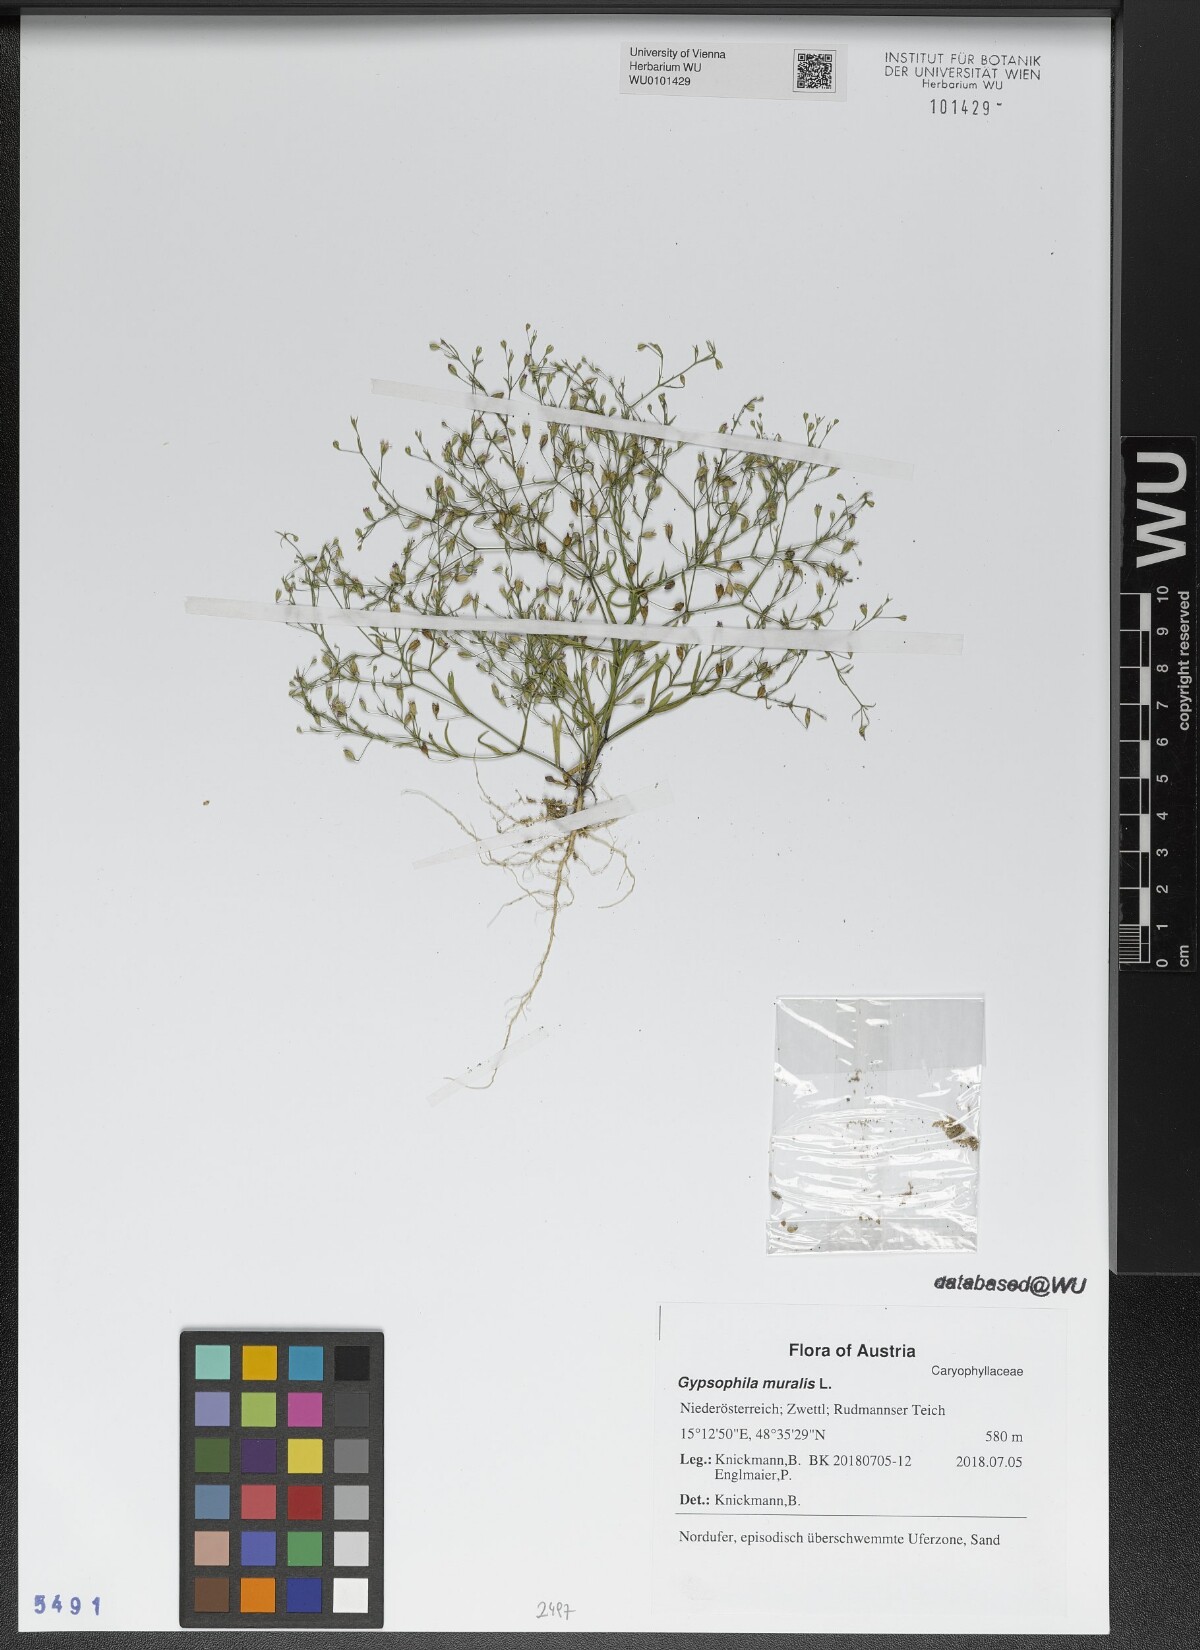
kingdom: Plantae
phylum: Tracheophyta
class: Magnoliopsida
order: Caryophyllales
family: Caryophyllaceae
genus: Psammophiliella
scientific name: Psammophiliella muralis
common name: Cushion baby's-breath
